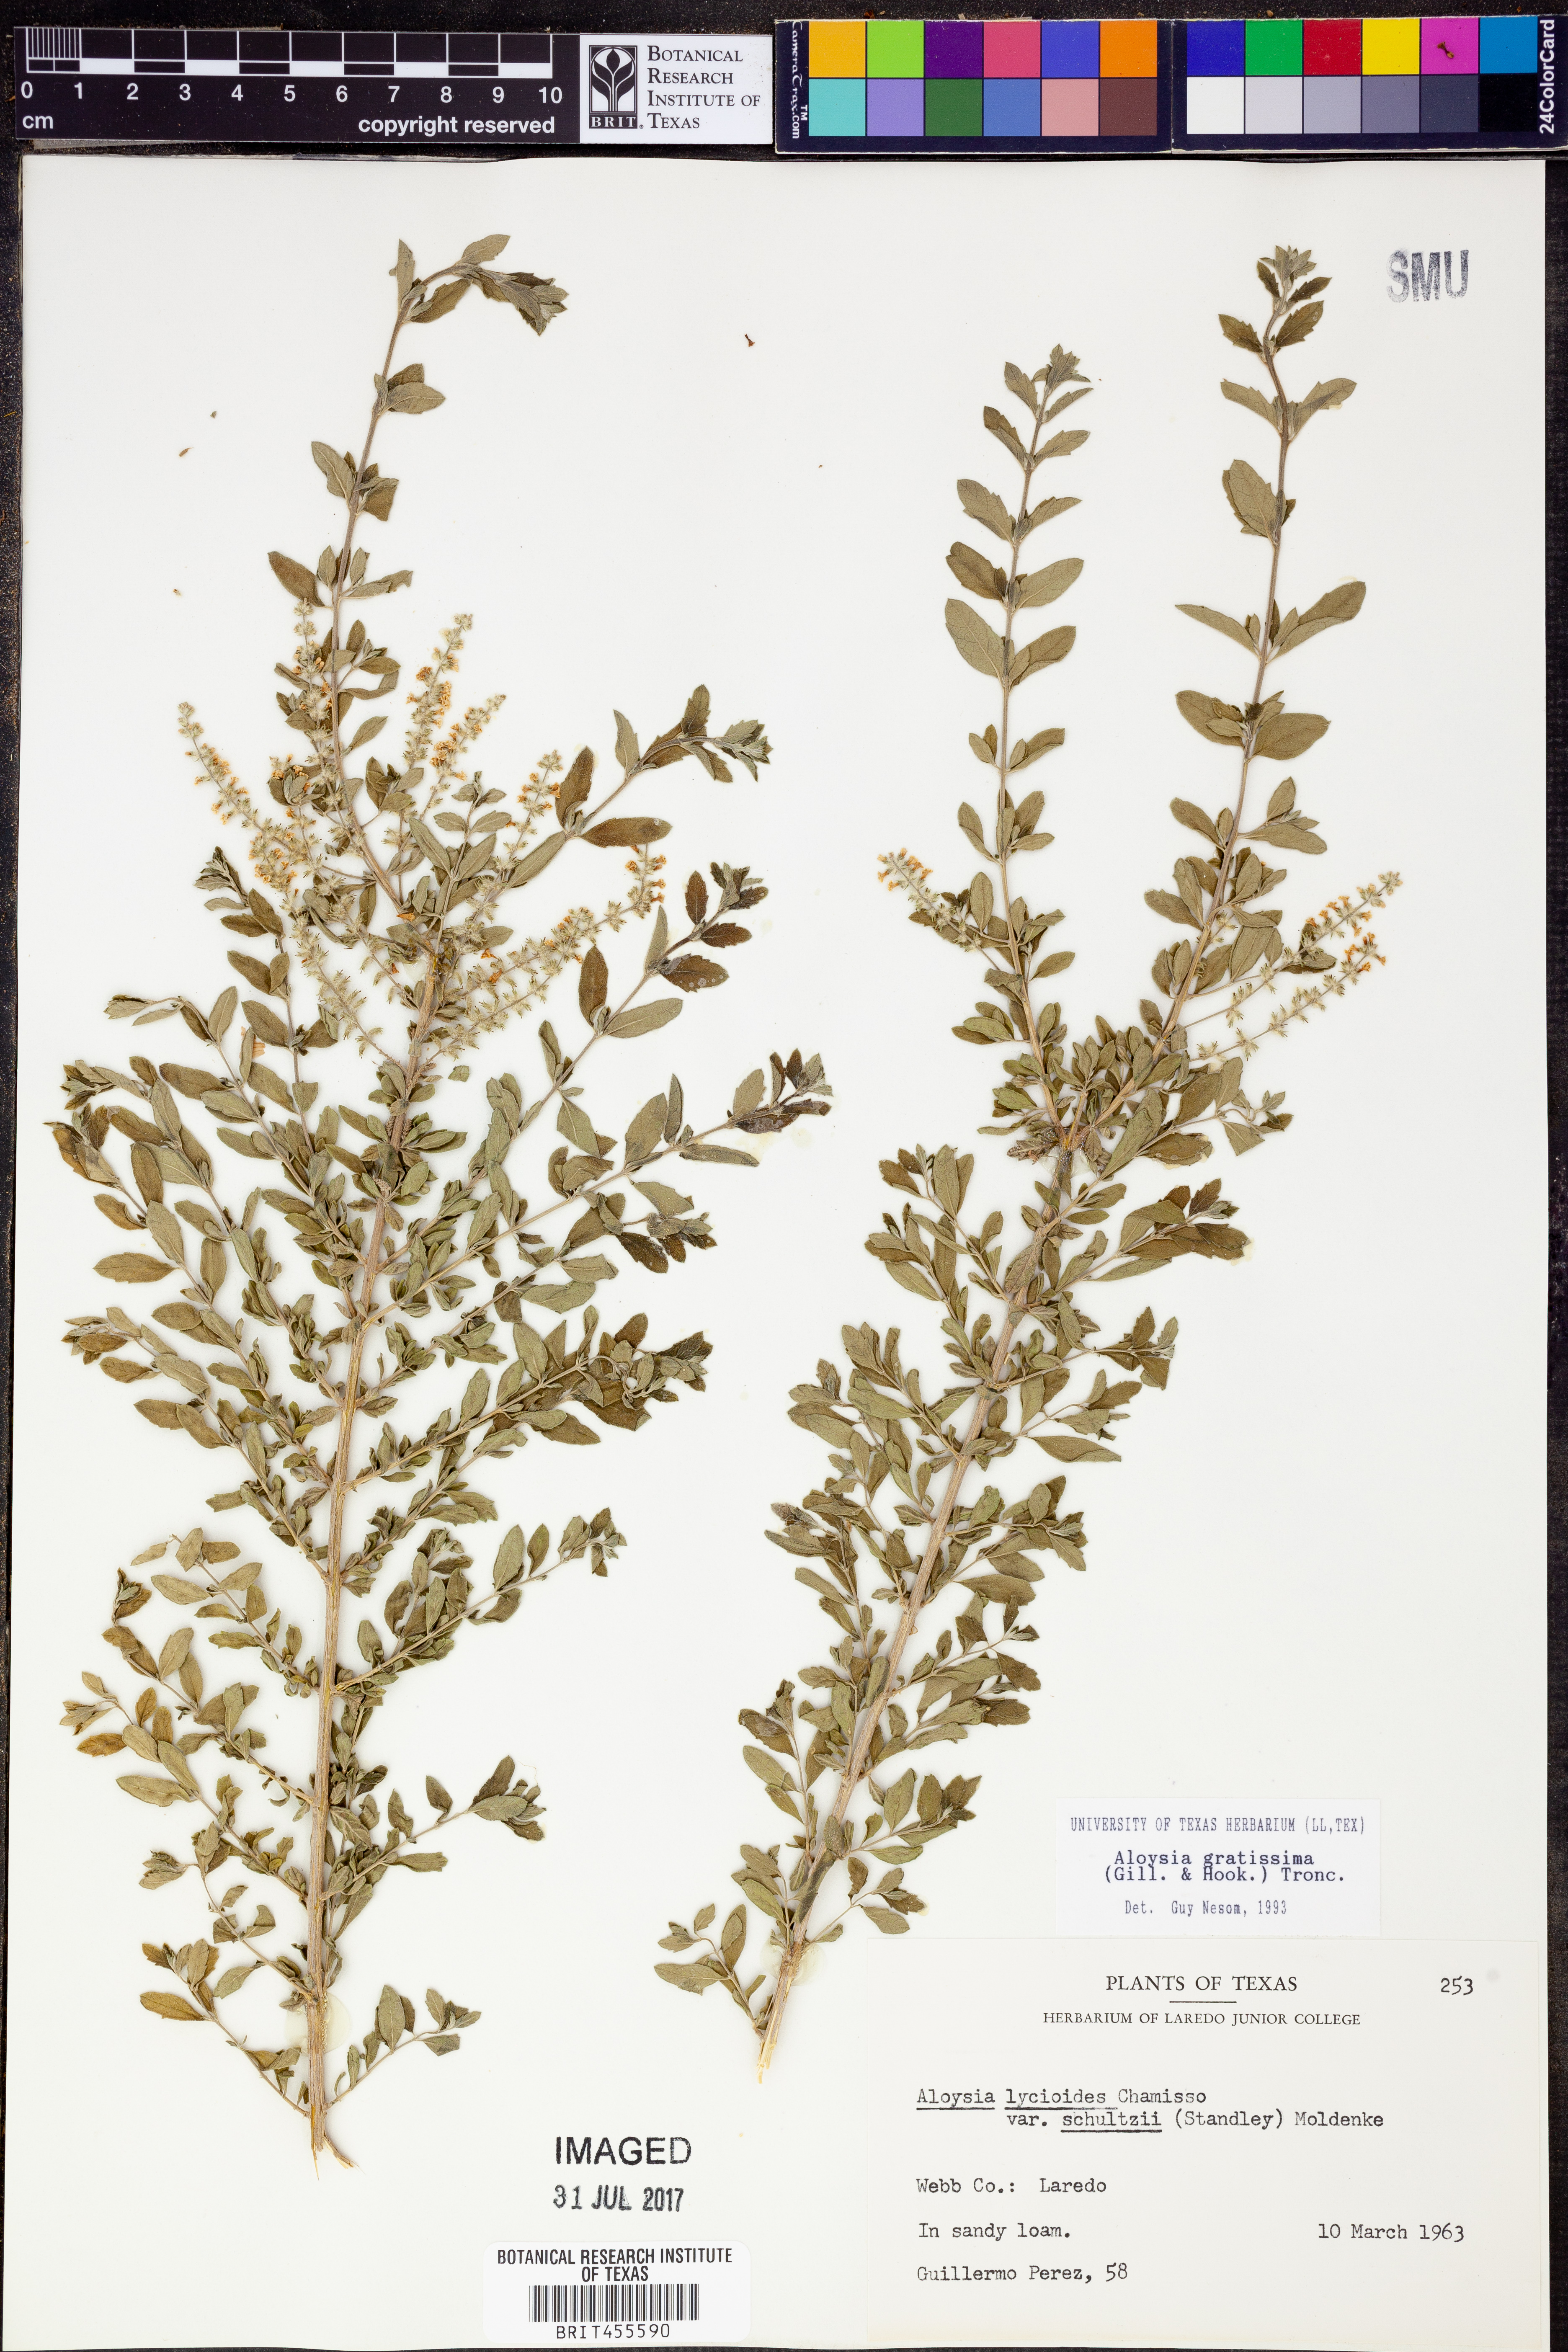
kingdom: Plantae
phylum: Tracheophyta
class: Magnoliopsida
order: Lamiales
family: Verbenaceae
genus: Aloysia
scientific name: Aloysia gratissima
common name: Common bee-brush
